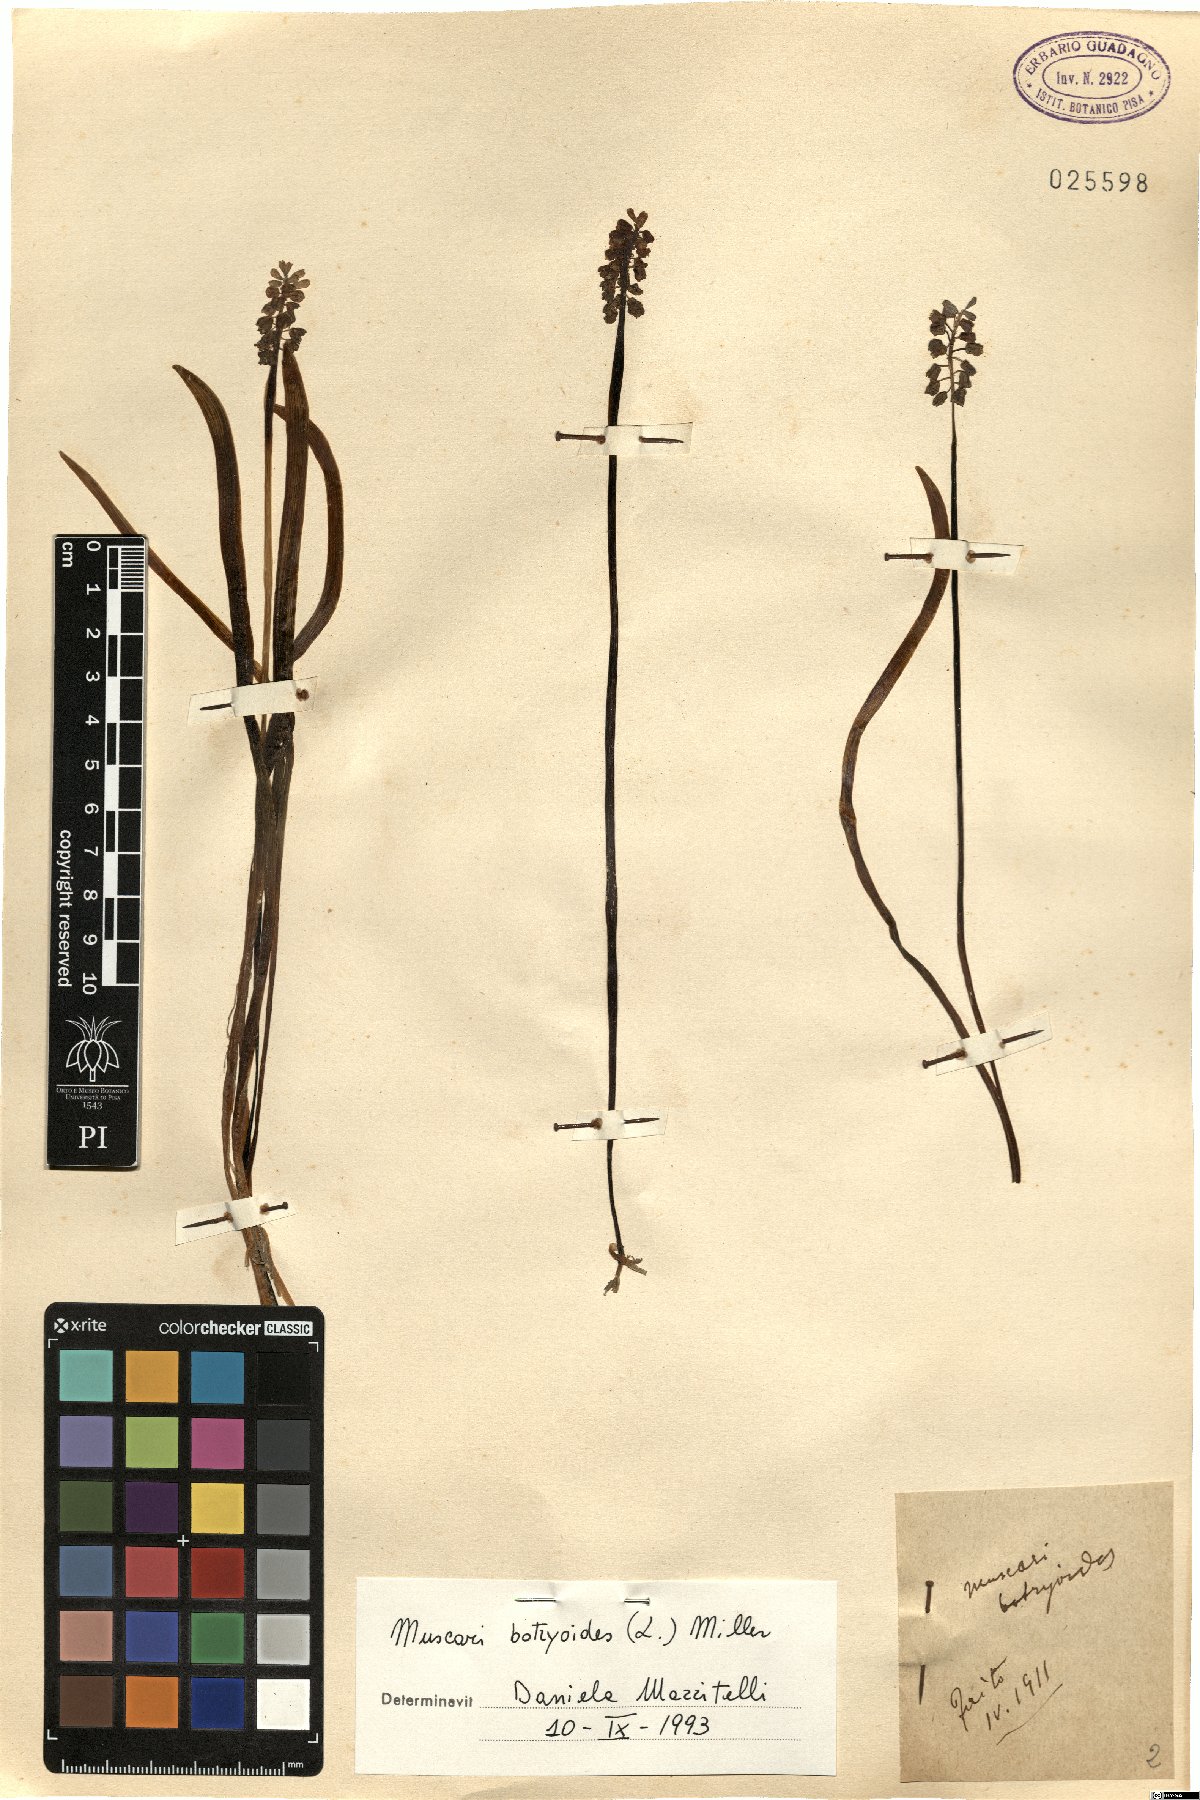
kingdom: Plantae
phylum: Tracheophyta
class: Liliopsida
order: Asparagales
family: Asparagaceae
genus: Muscari
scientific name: Muscari botryoides
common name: Compact grape-hyacinth
